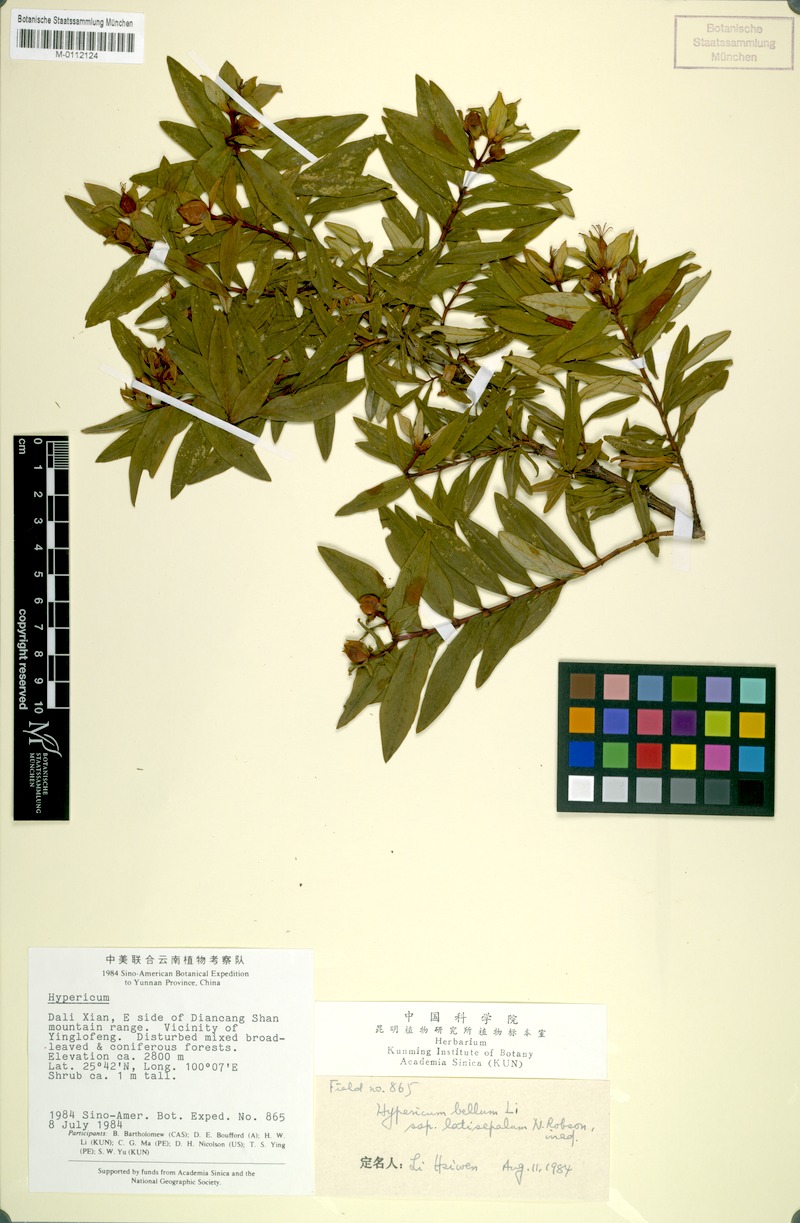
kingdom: Plantae
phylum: Tracheophyta
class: Magnoliopsida
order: Malpighiales
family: Hypericaceae
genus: Hypericum
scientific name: Hypericum latisepalum
